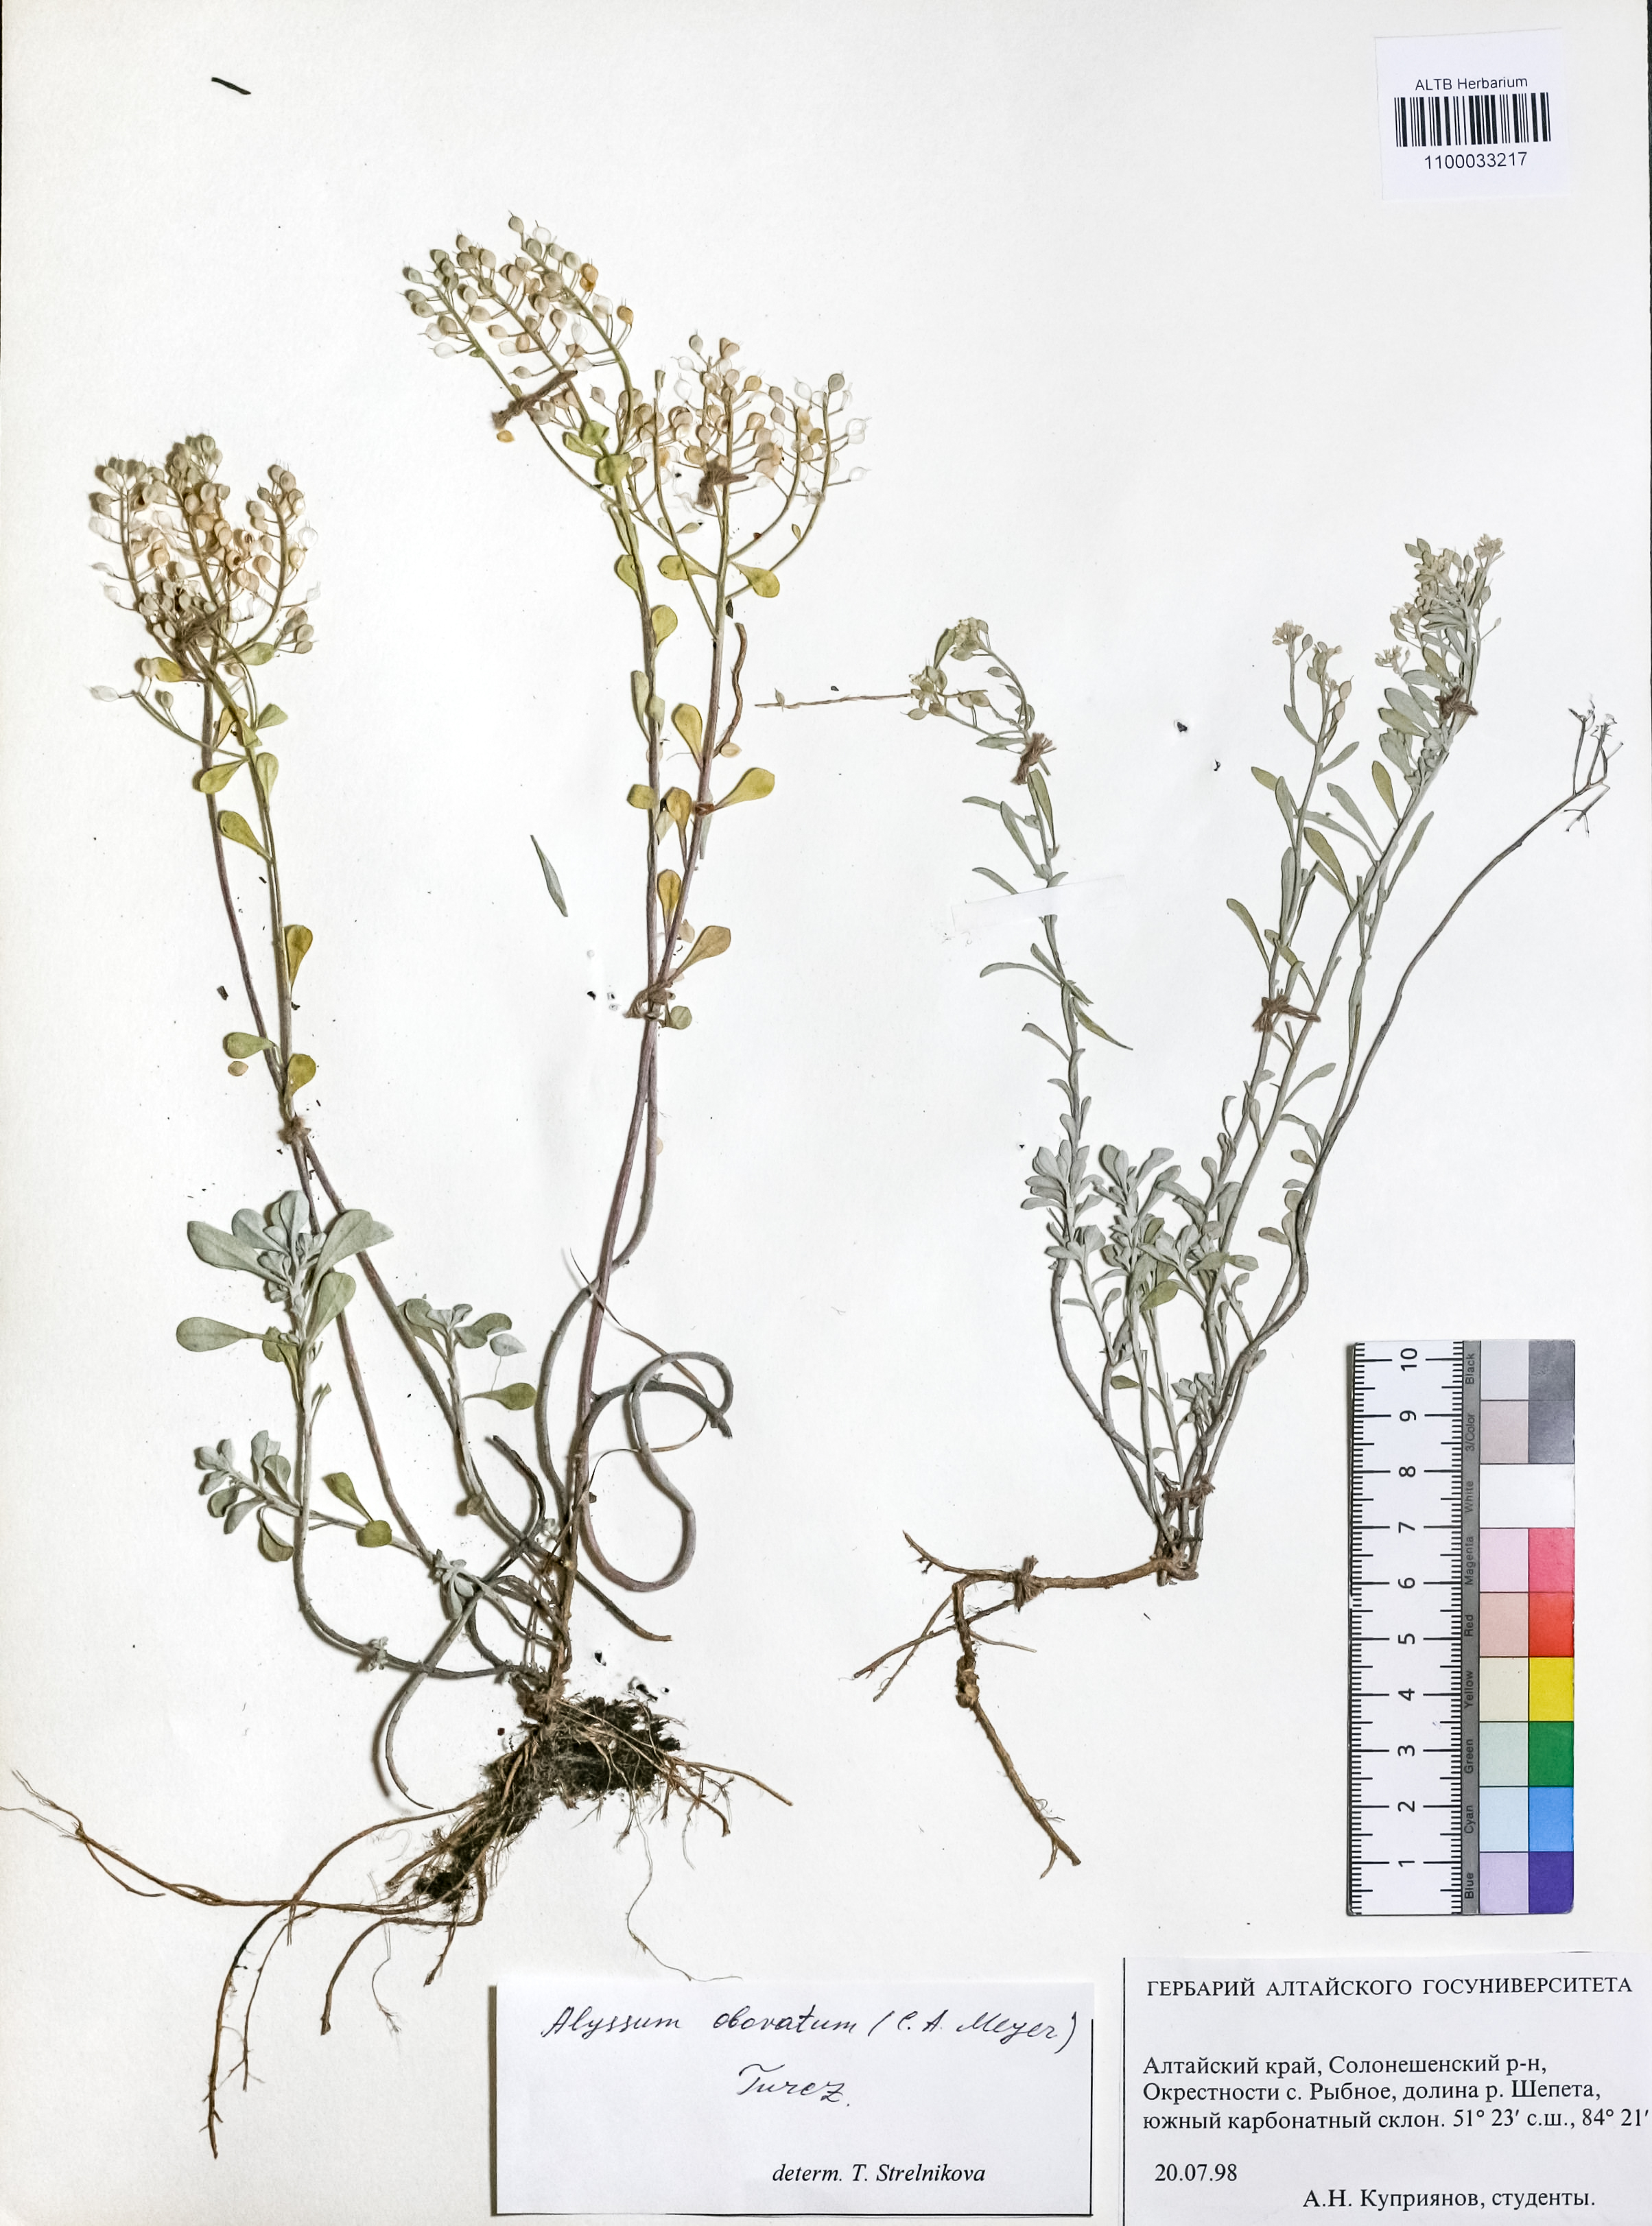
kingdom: Plantae
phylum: Tracheophyta
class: Magnoliopsida
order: Brassicales
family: Brassicaceae
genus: Odontarrhena
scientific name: Odontarrhena obovata
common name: American alyssum
